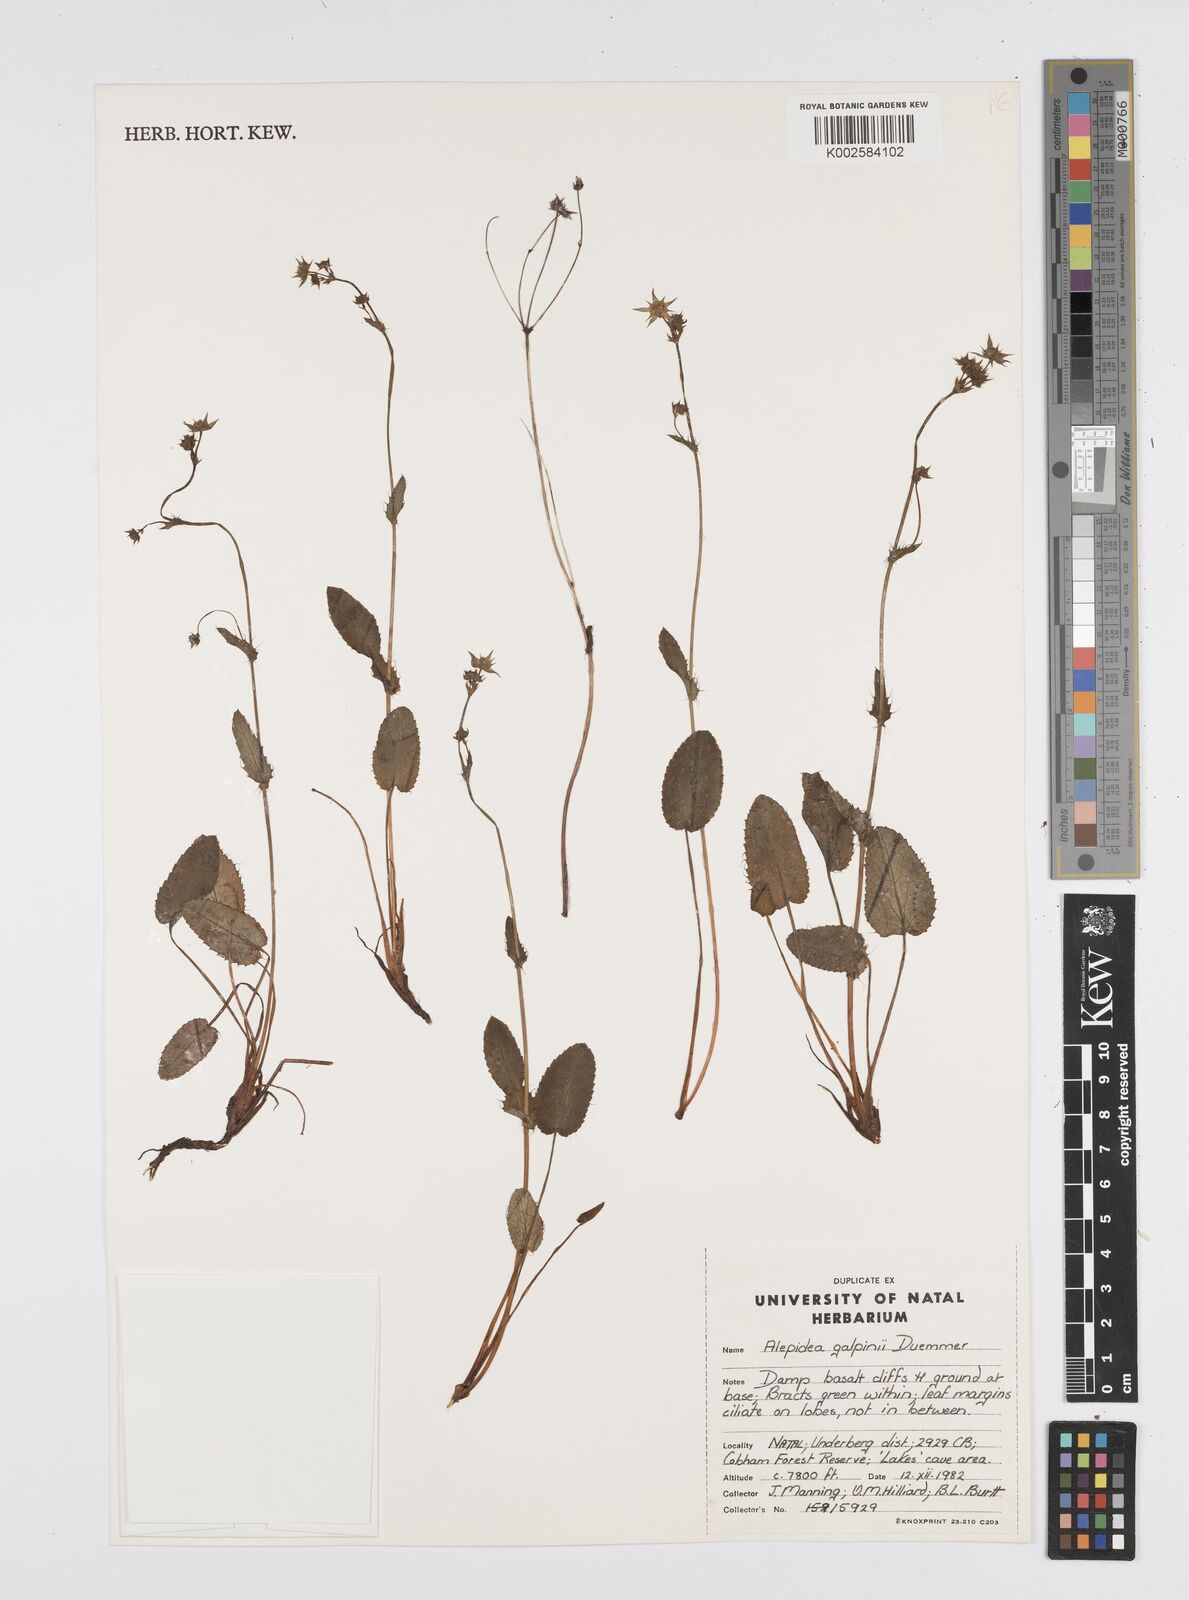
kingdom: Plantae
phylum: Tracheophyta
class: Magnoliopsida
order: Apiales
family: Apiaceae
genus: Alepidea
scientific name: Alepidea galpinii
